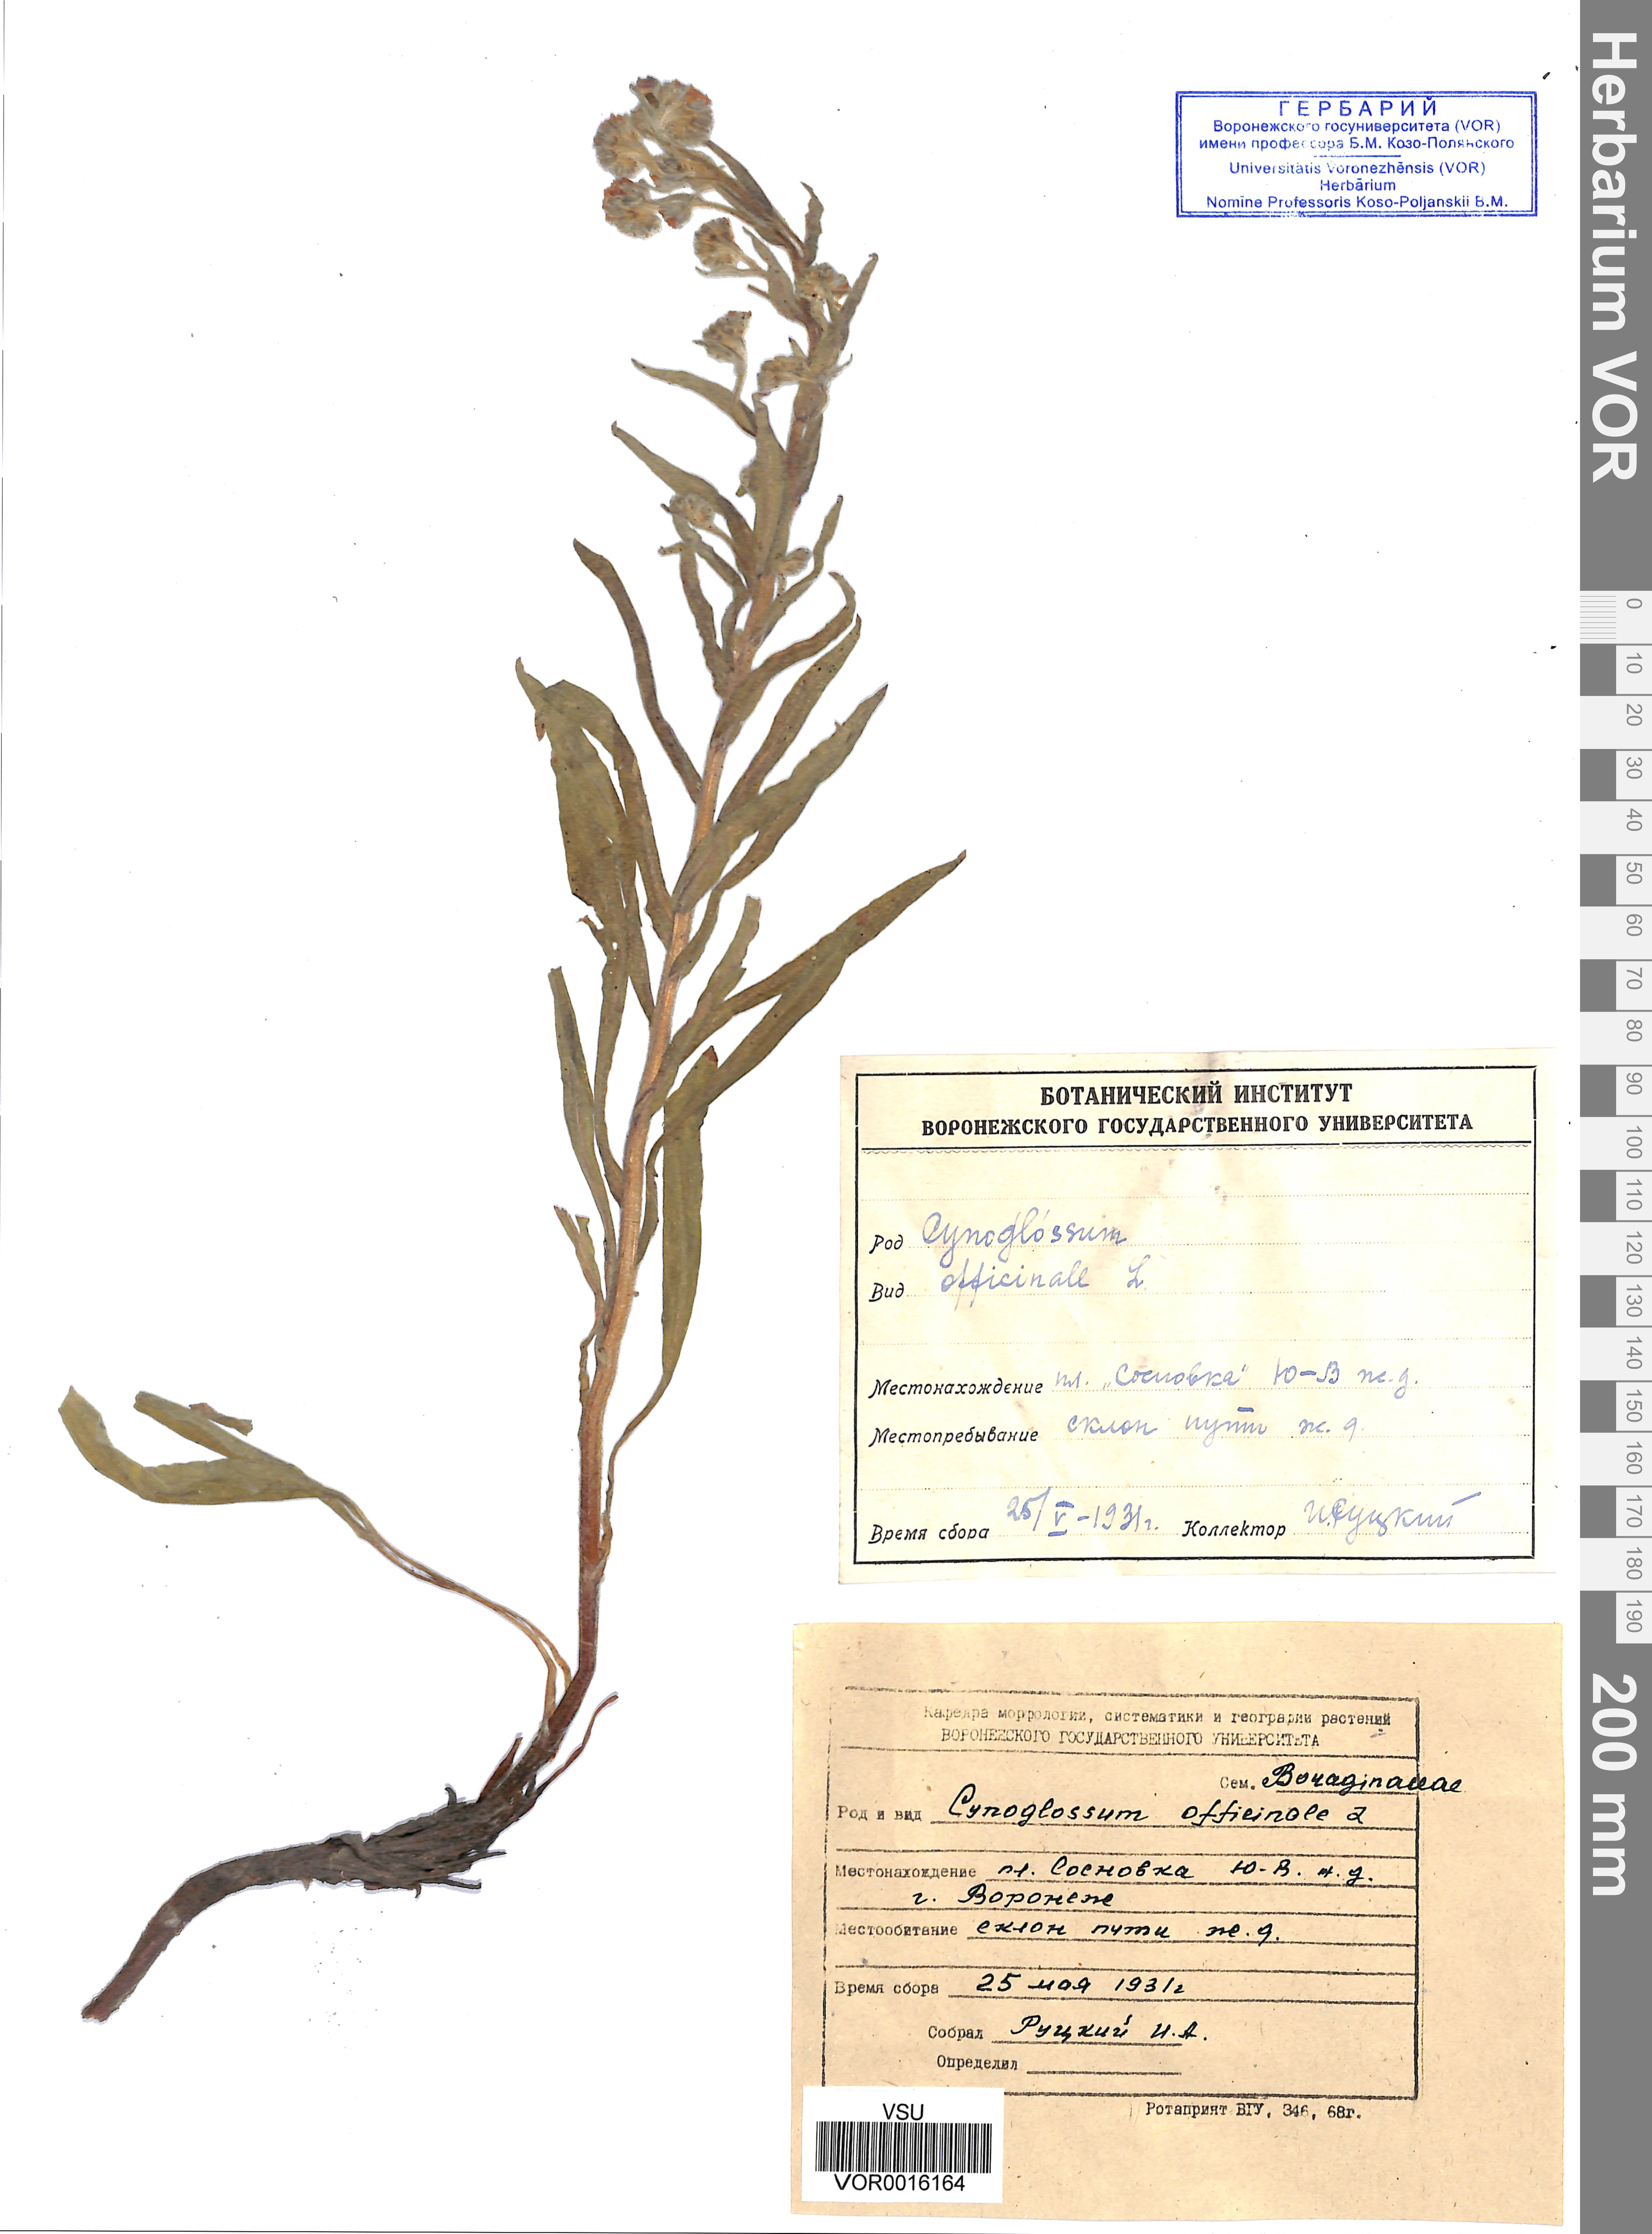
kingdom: Plantae
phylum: Tracheophyta
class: Magnoliopsida
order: Boraginales
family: Boraginaceae
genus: Cynoglossum
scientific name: Cynoglossum officinale
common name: Hound's-tongue
